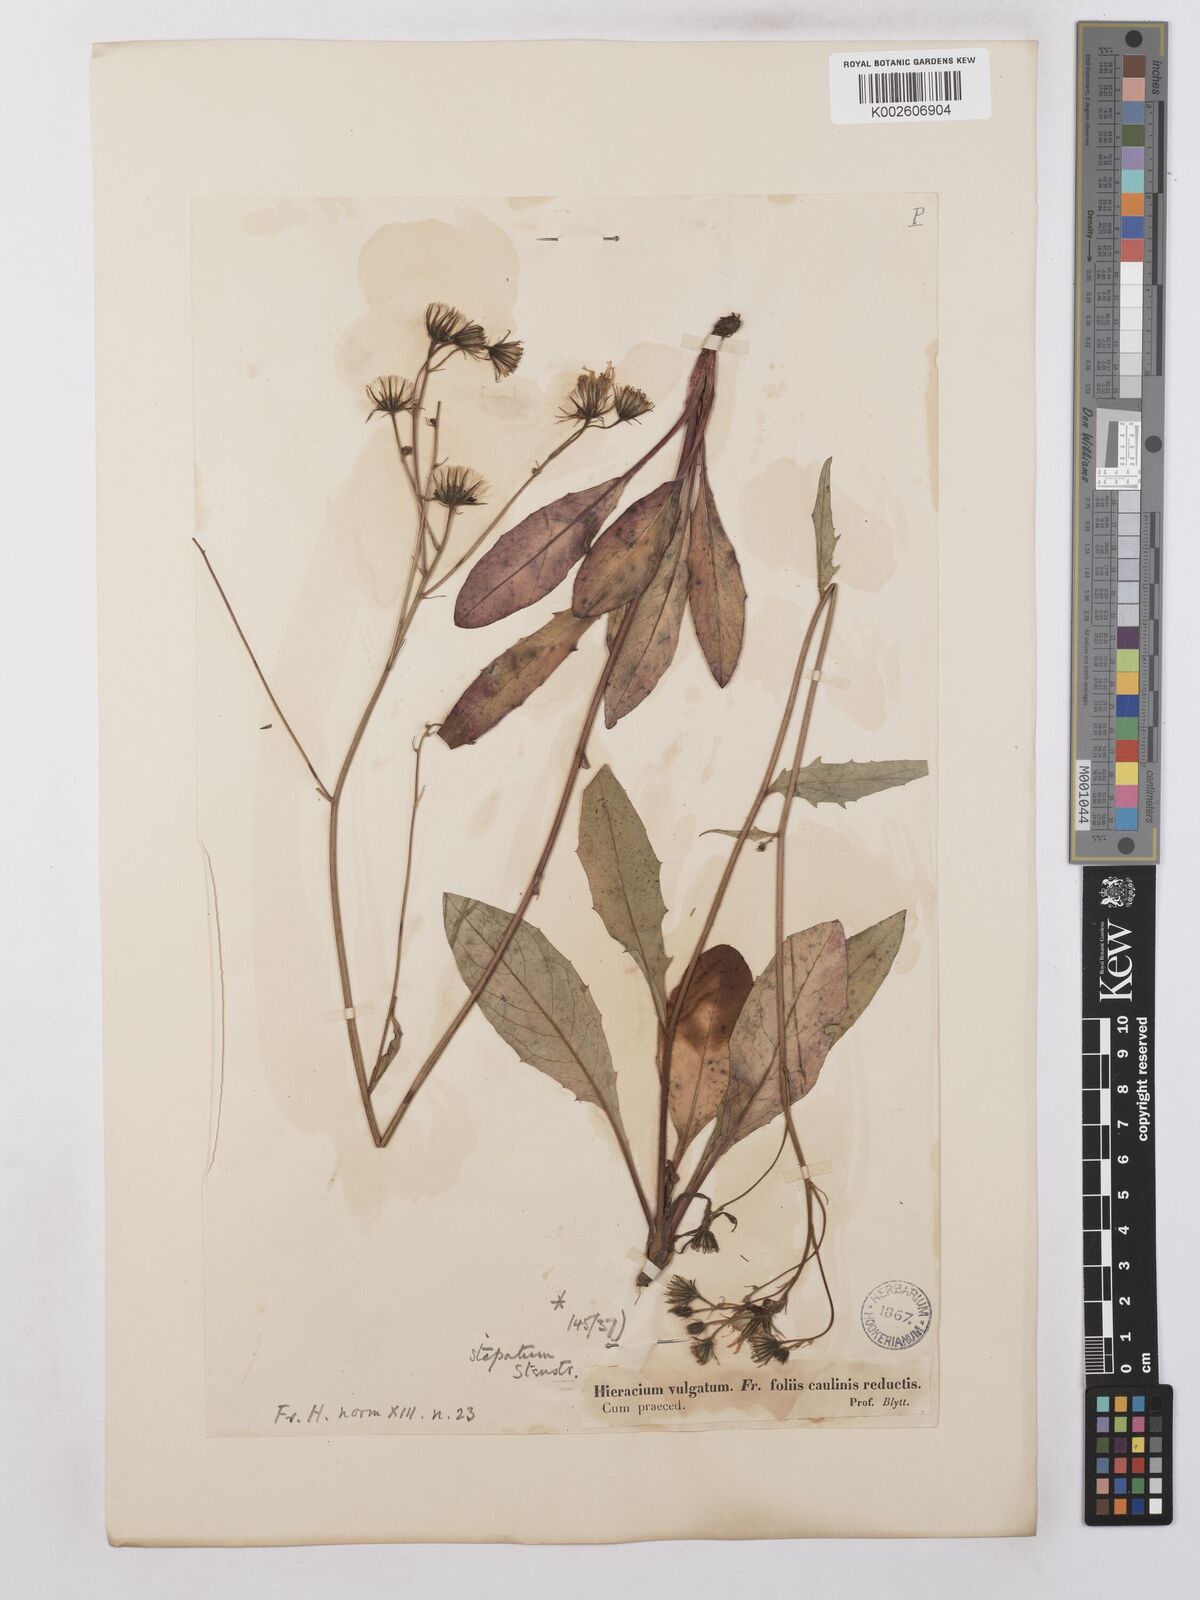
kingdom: Plantae
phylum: Tracheophyta
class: Magnoliopsida
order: Asterales
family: Asteraceae
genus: Hieracium
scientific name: Hieracium levicaule
